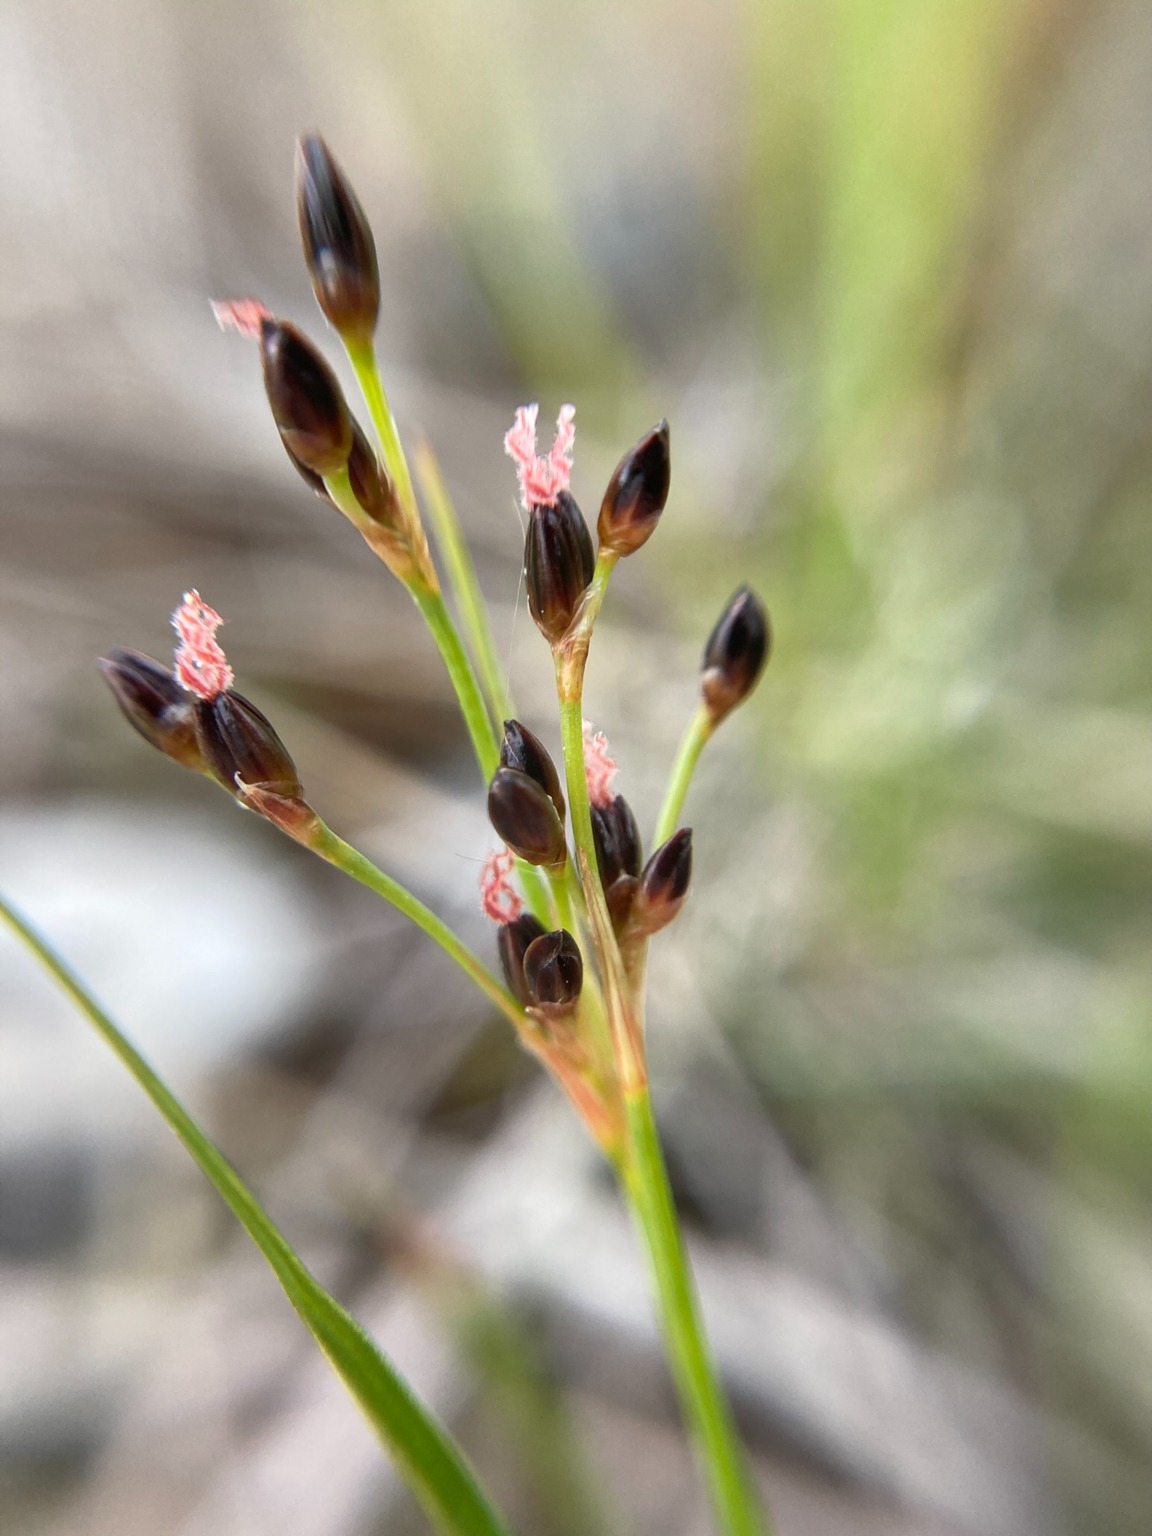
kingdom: Plantae
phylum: Tracheophyta
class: Liliopsida
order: Poales
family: Juncaceae
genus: Juncus
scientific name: Juncus gerardi
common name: Harril
